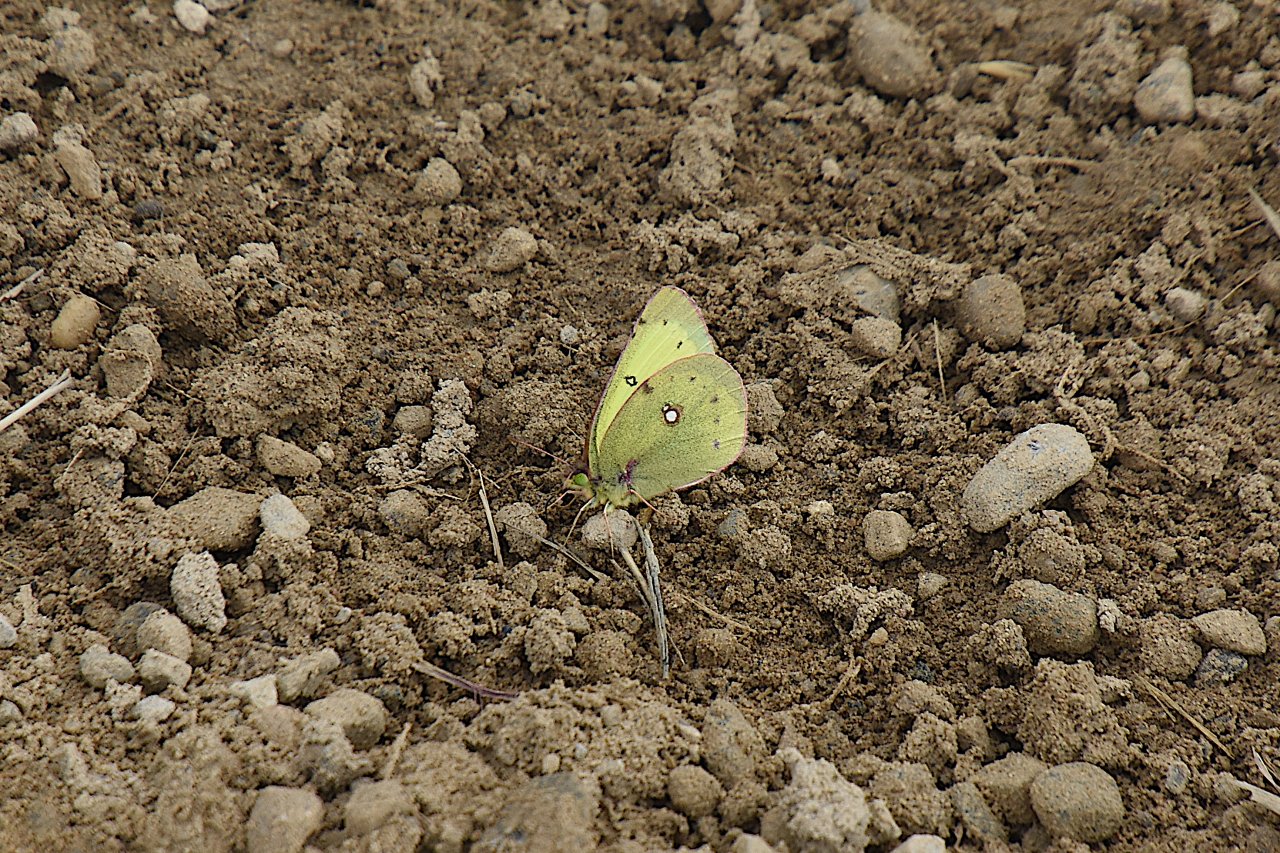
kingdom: Animalia
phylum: Arthropoda
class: Insecta
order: Lepidoptera
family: Pieridae
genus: Colias
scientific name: Colias philodice
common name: Clouded Sulphur
